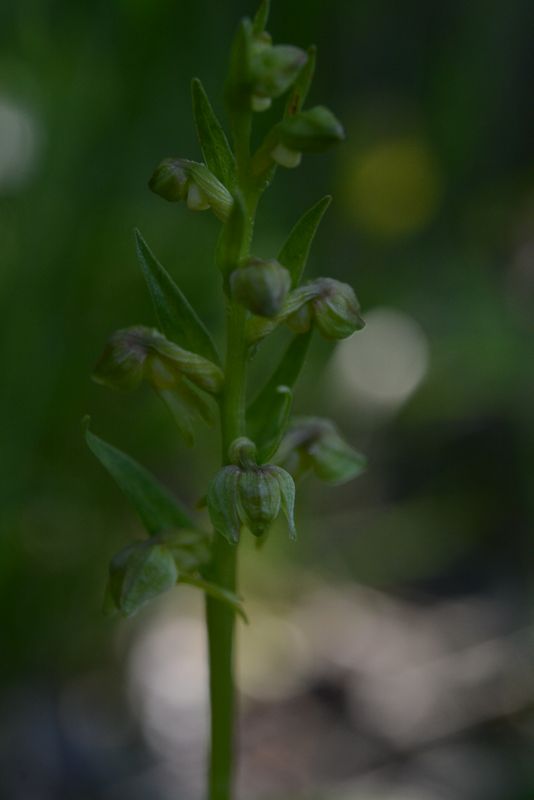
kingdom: Plantae
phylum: Tracheophyta
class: Liliopsida
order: Asparagales
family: Orchidaceae
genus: Dactylorhiza
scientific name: Dactylorhiza viridis
